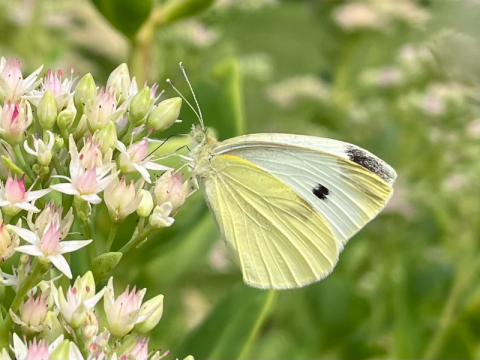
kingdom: Animalia
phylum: Arthropoda
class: Insecta
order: Lepidoptera
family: Pieridae
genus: Pieris
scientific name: Pieris rapae
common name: Cabbage White
